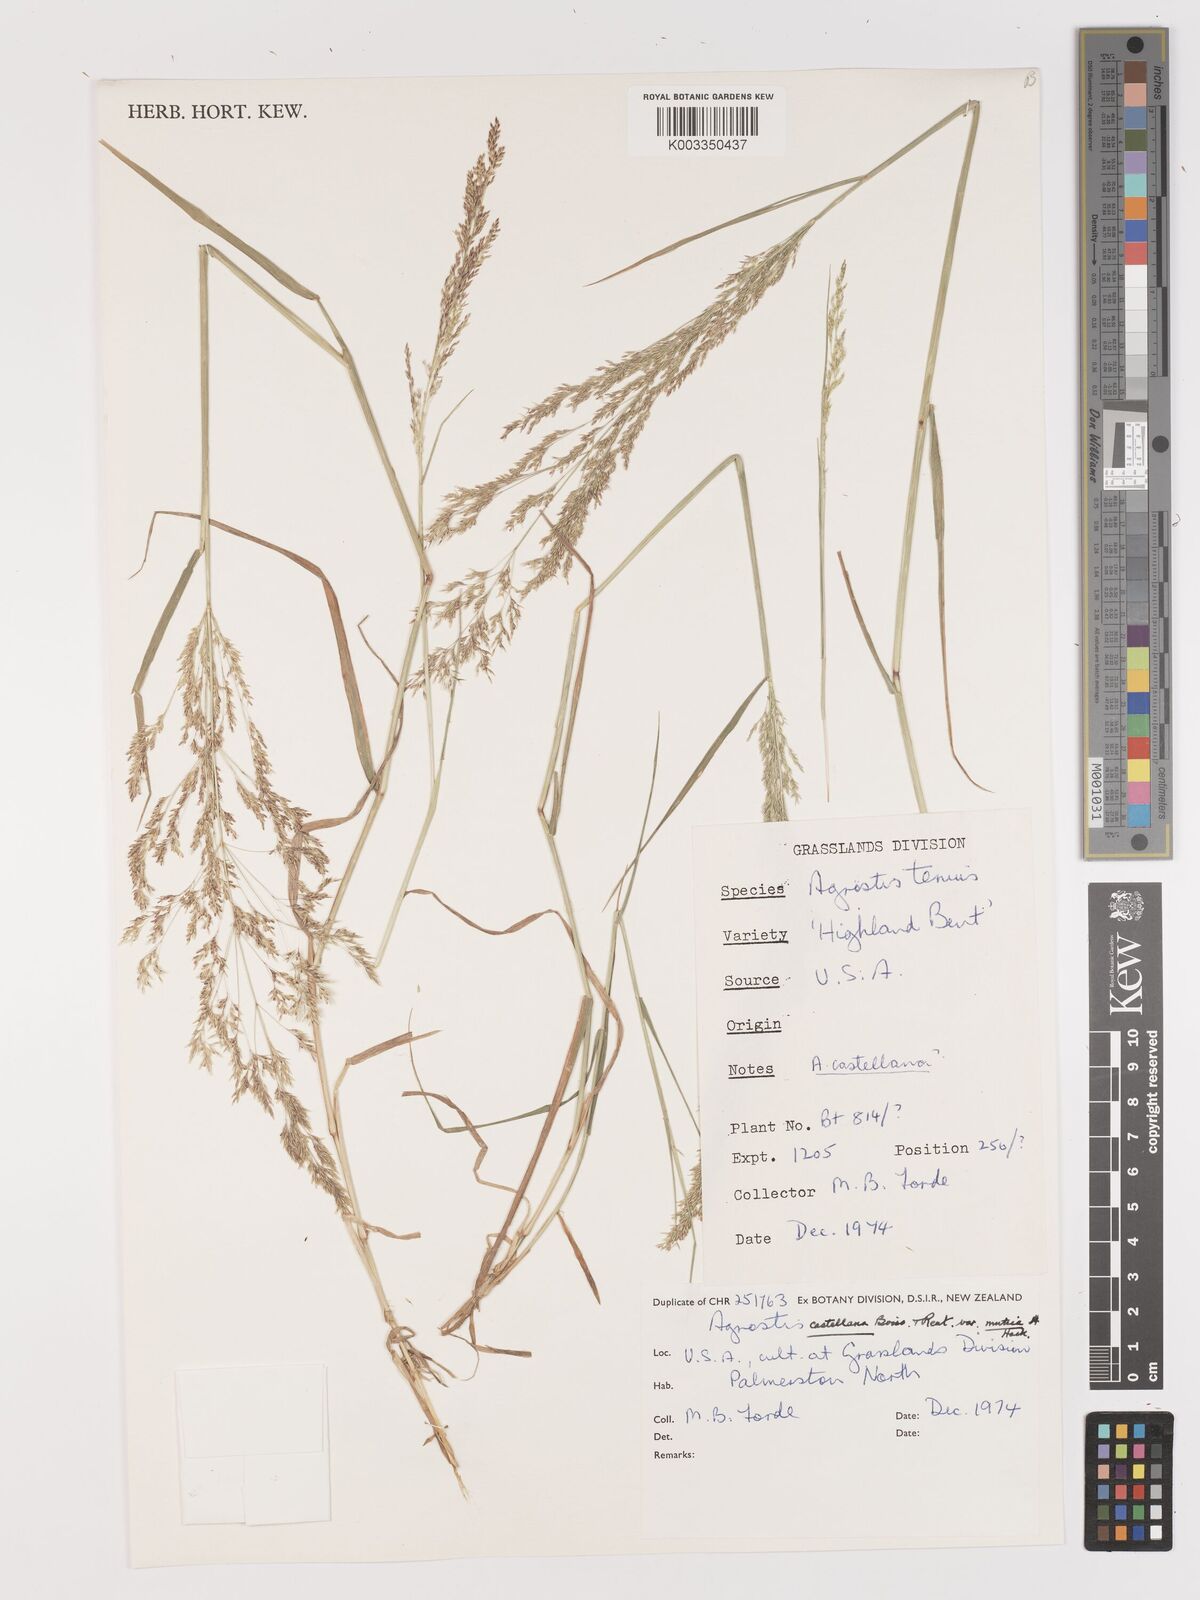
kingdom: Plantae
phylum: Tracheophyta
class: Liliopsida
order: Poales
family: Poaceae
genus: Agrostis
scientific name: Agrostis castellana
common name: Highland bent
